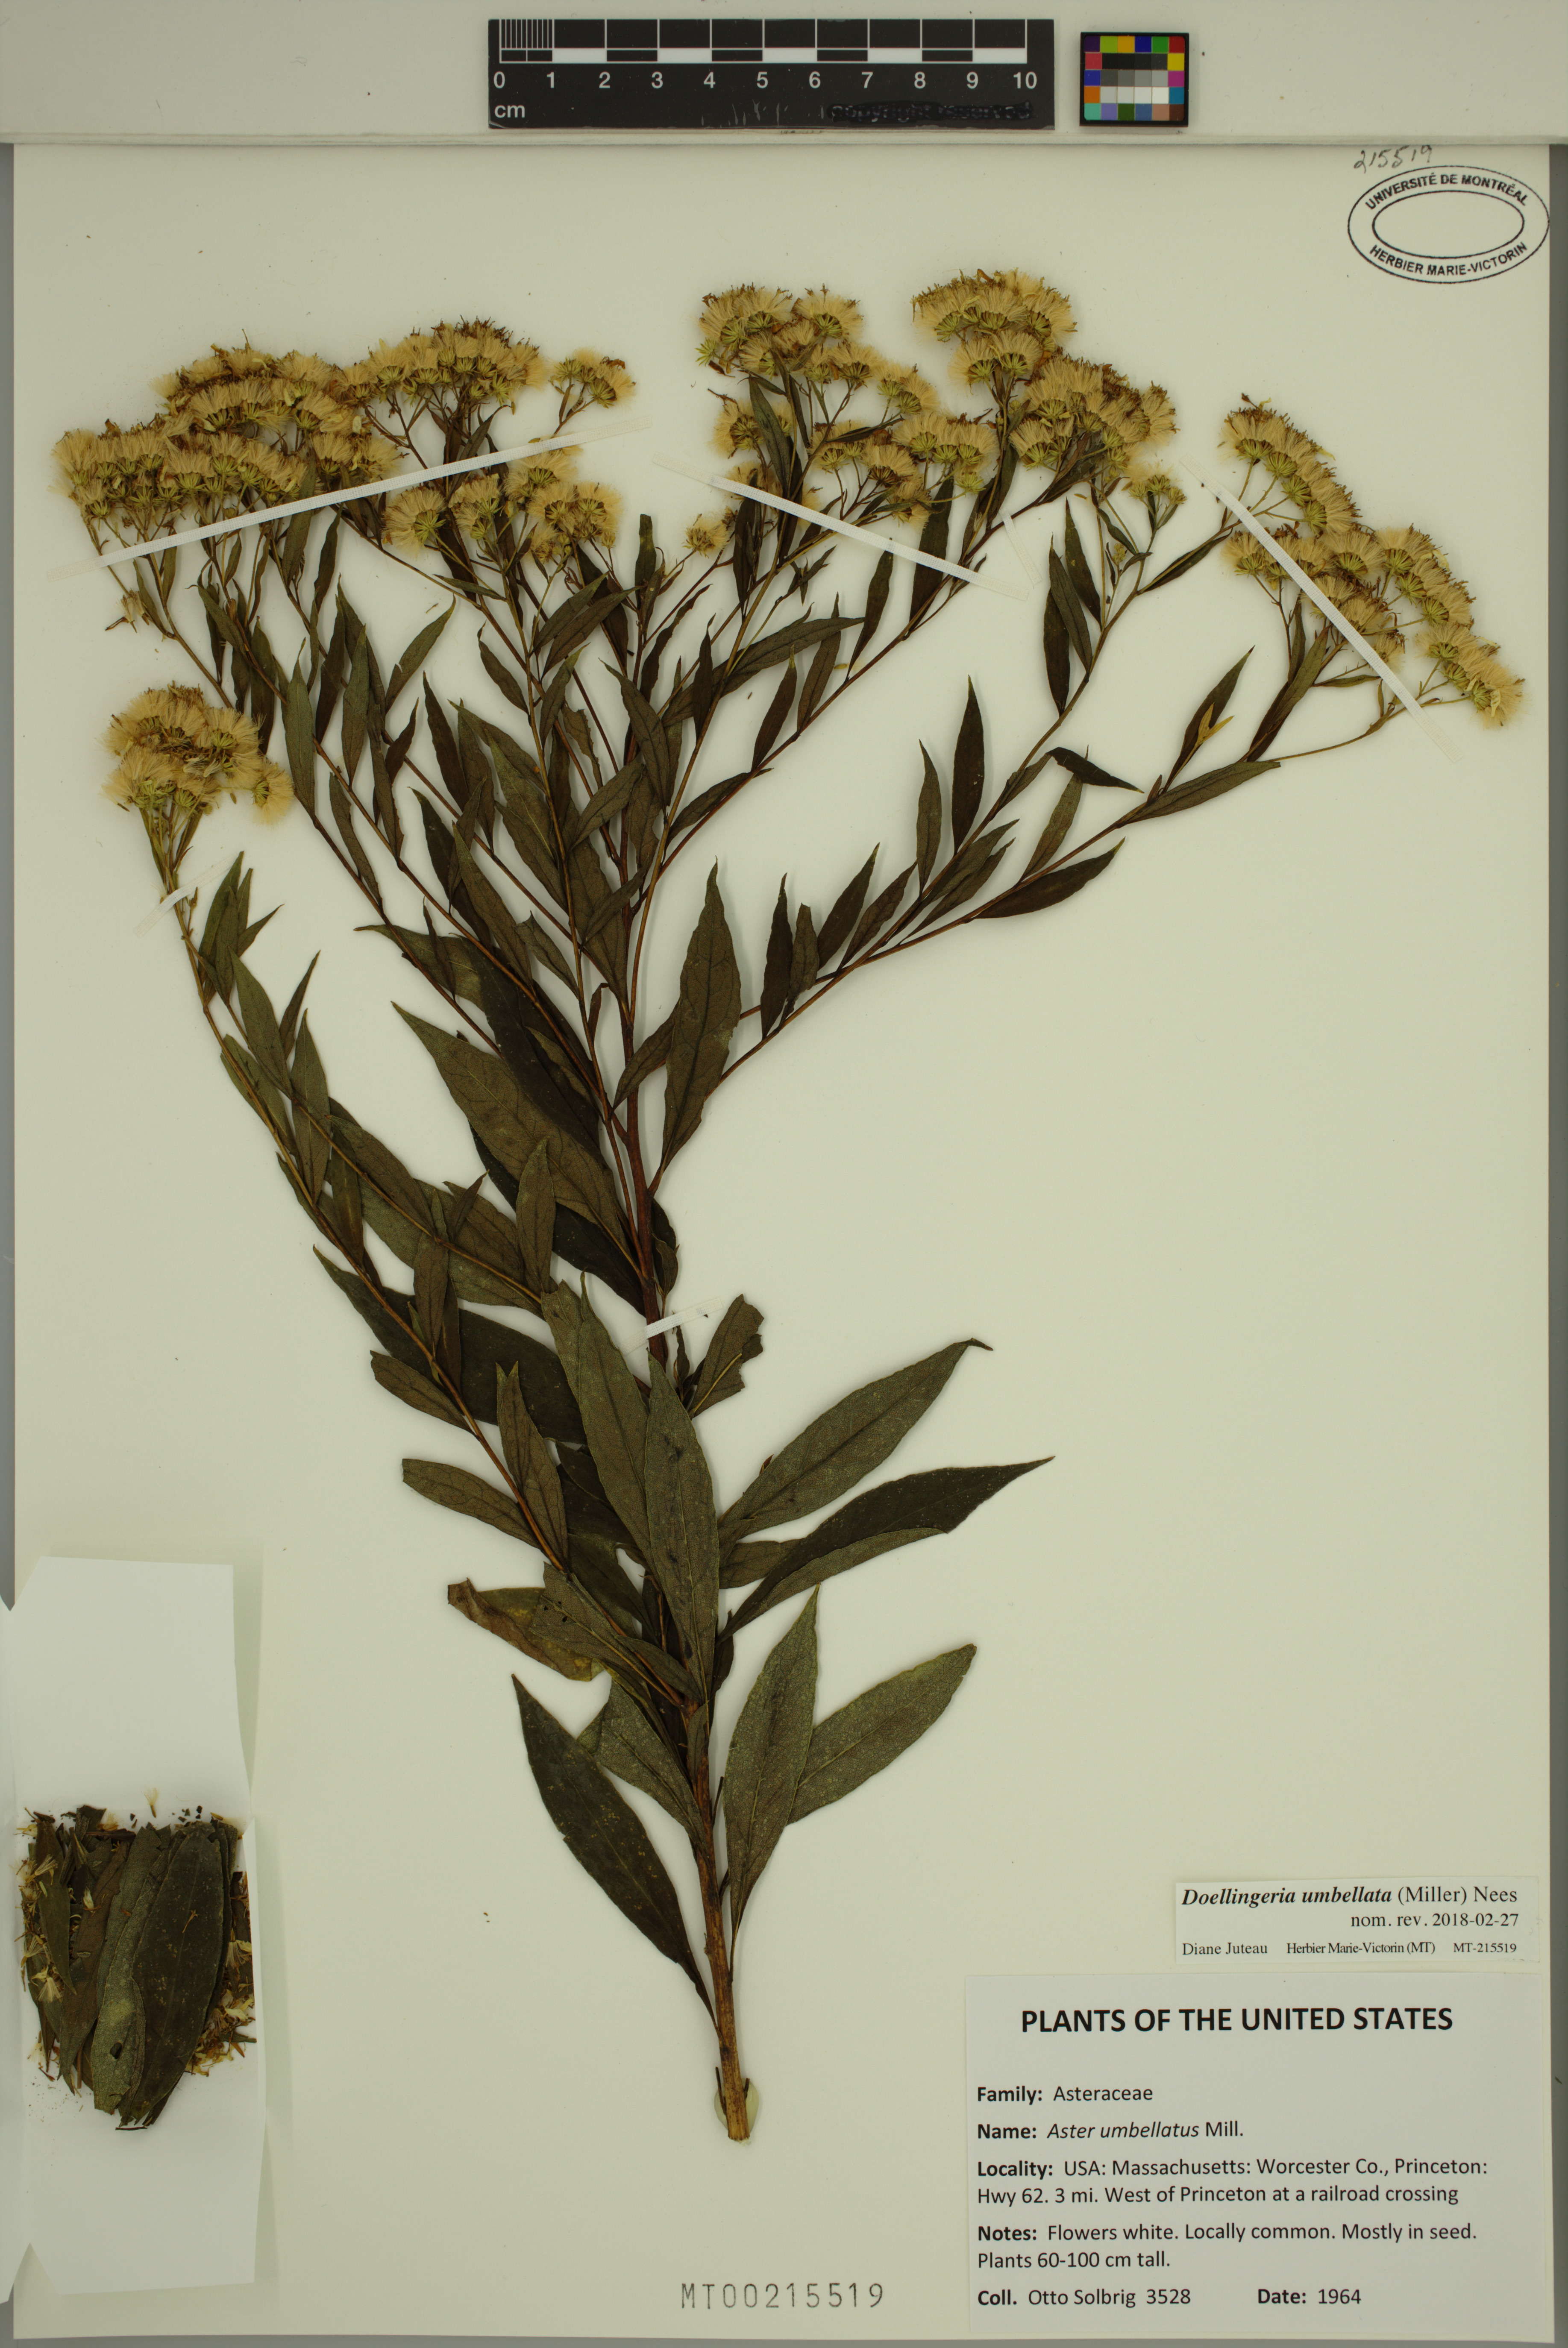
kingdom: Plantae
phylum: Tracheophyta
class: Magnoliopsida
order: Asterales
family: Asteraceae
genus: Doellingeria
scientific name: Doellingeria umbellata
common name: Flat-top white aster
